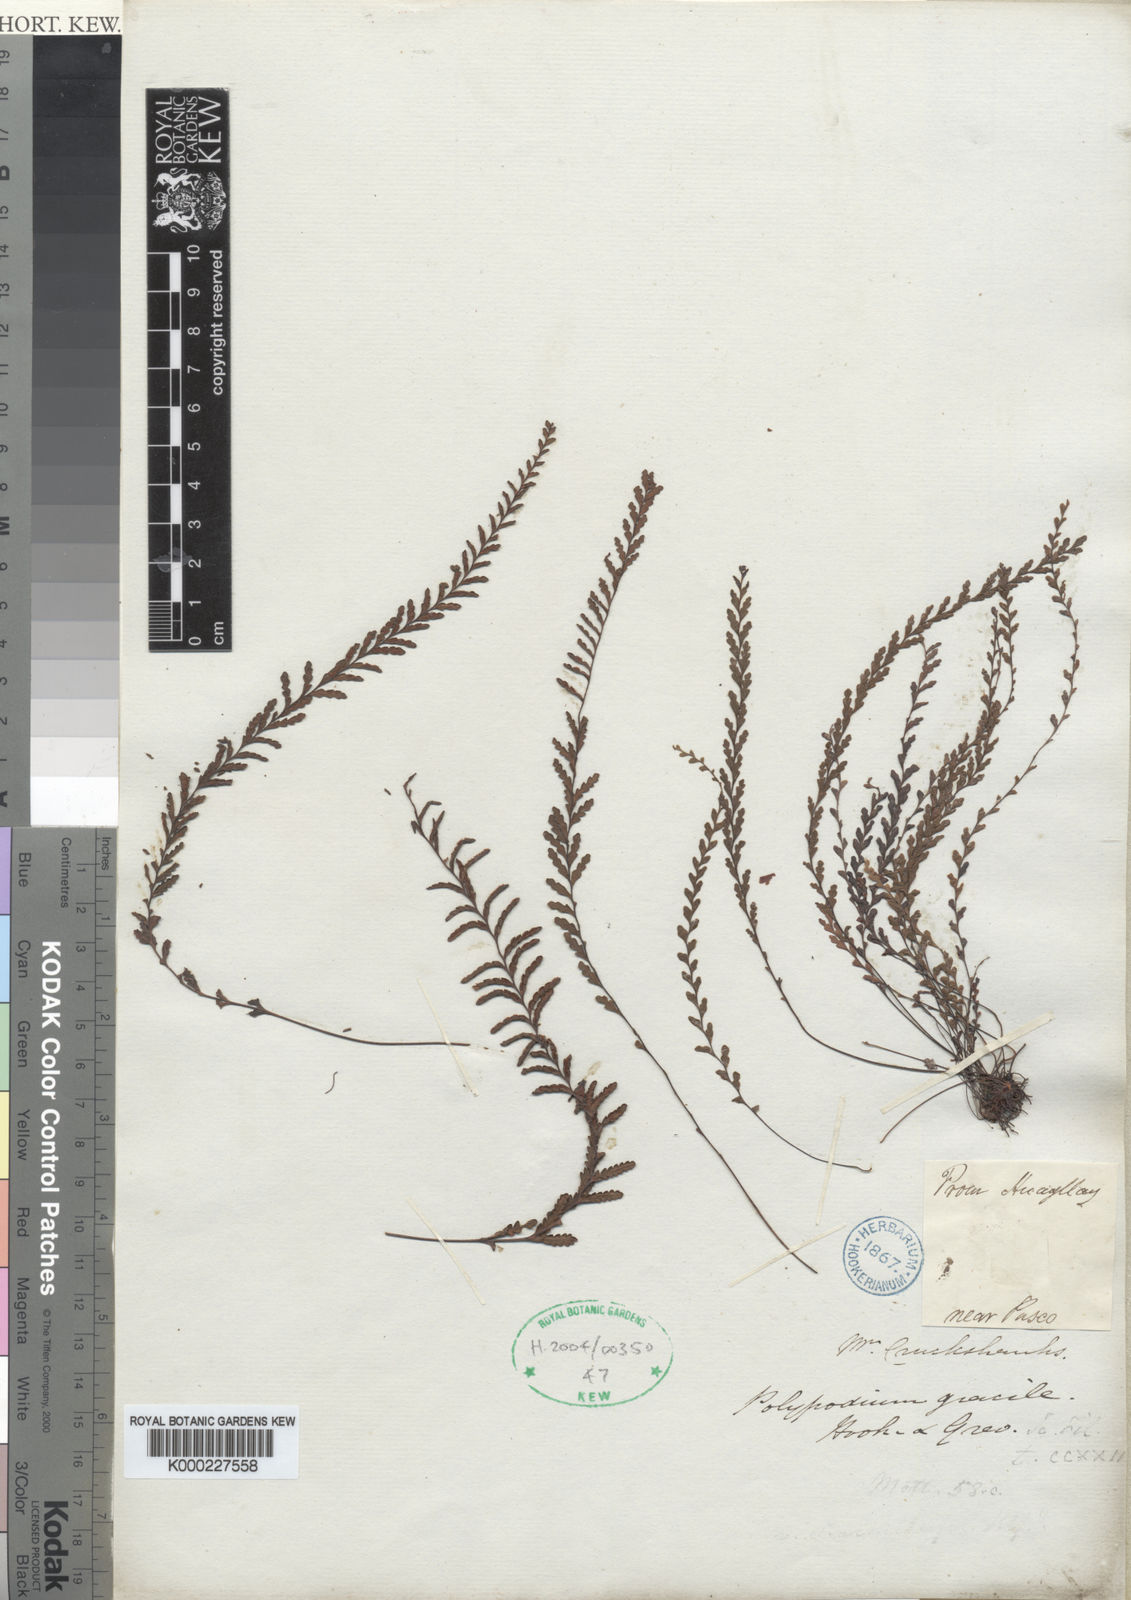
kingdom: Plantae
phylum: Tracheophyta
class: Polypodiopsida
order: Polypodiales
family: Polypodiaceae
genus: Melpomene
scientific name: Melpomene
